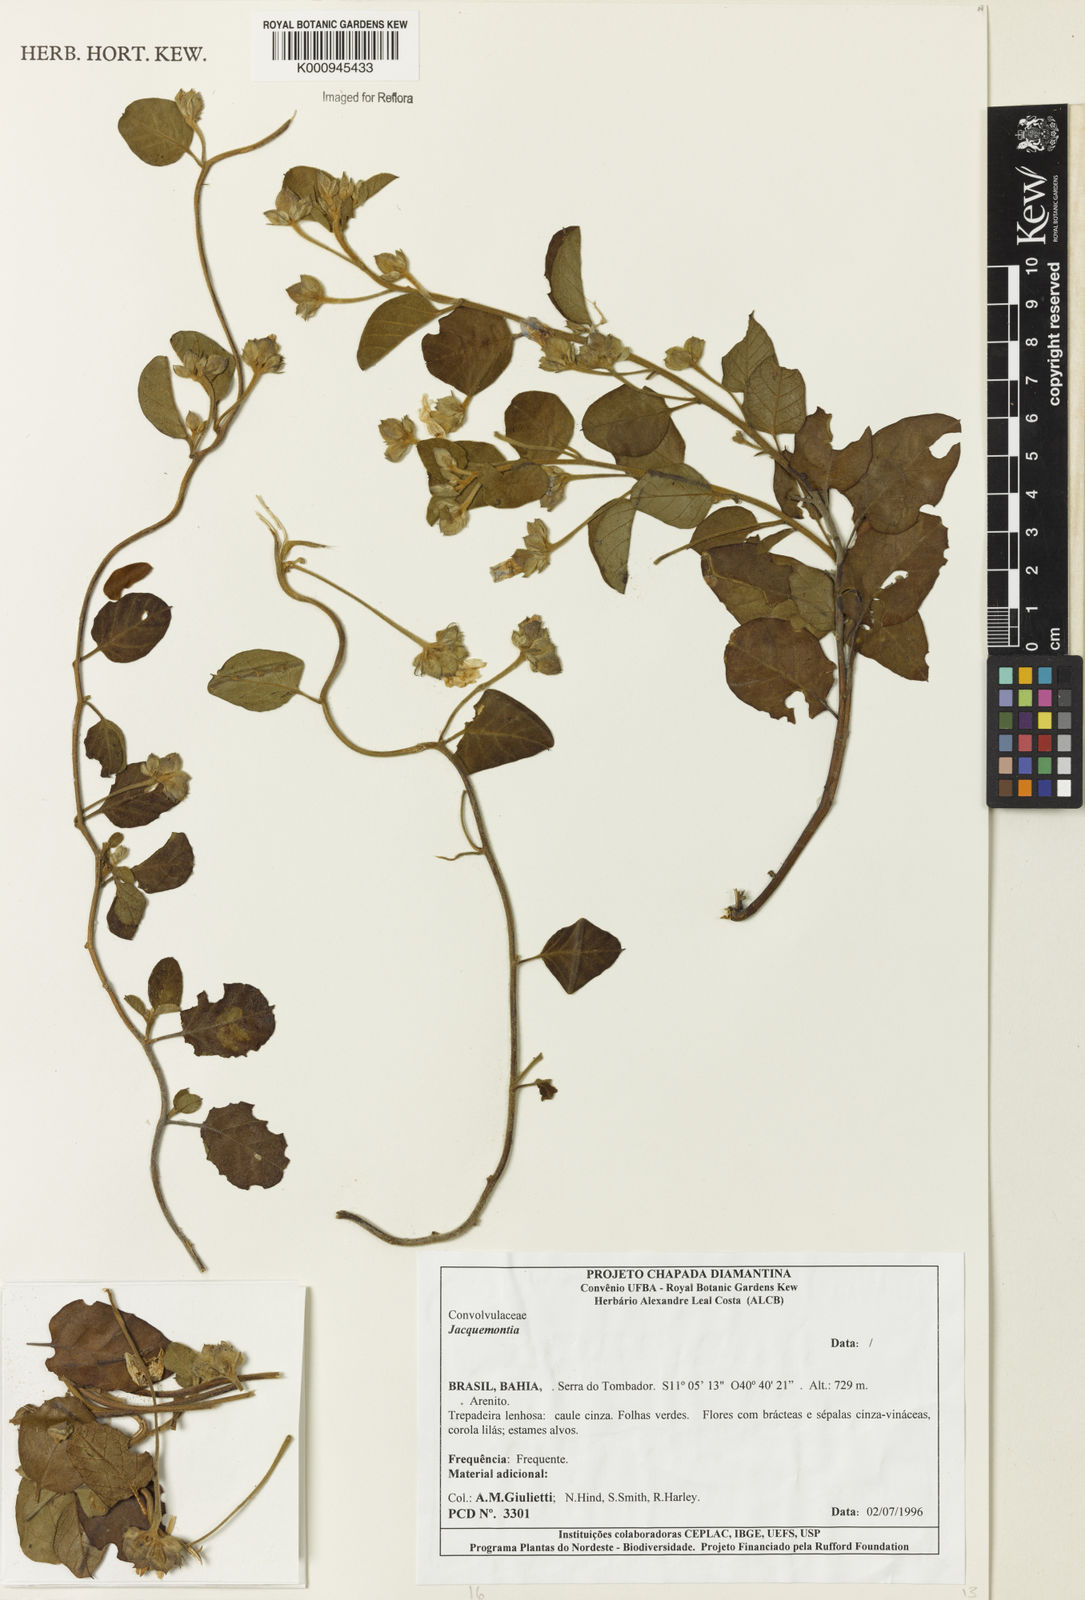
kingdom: Plantae
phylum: Tracheophyta
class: Magnoliopsida
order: Solanales
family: Convolvulaceae
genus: Jacquemontia
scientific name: Jacquemontia
